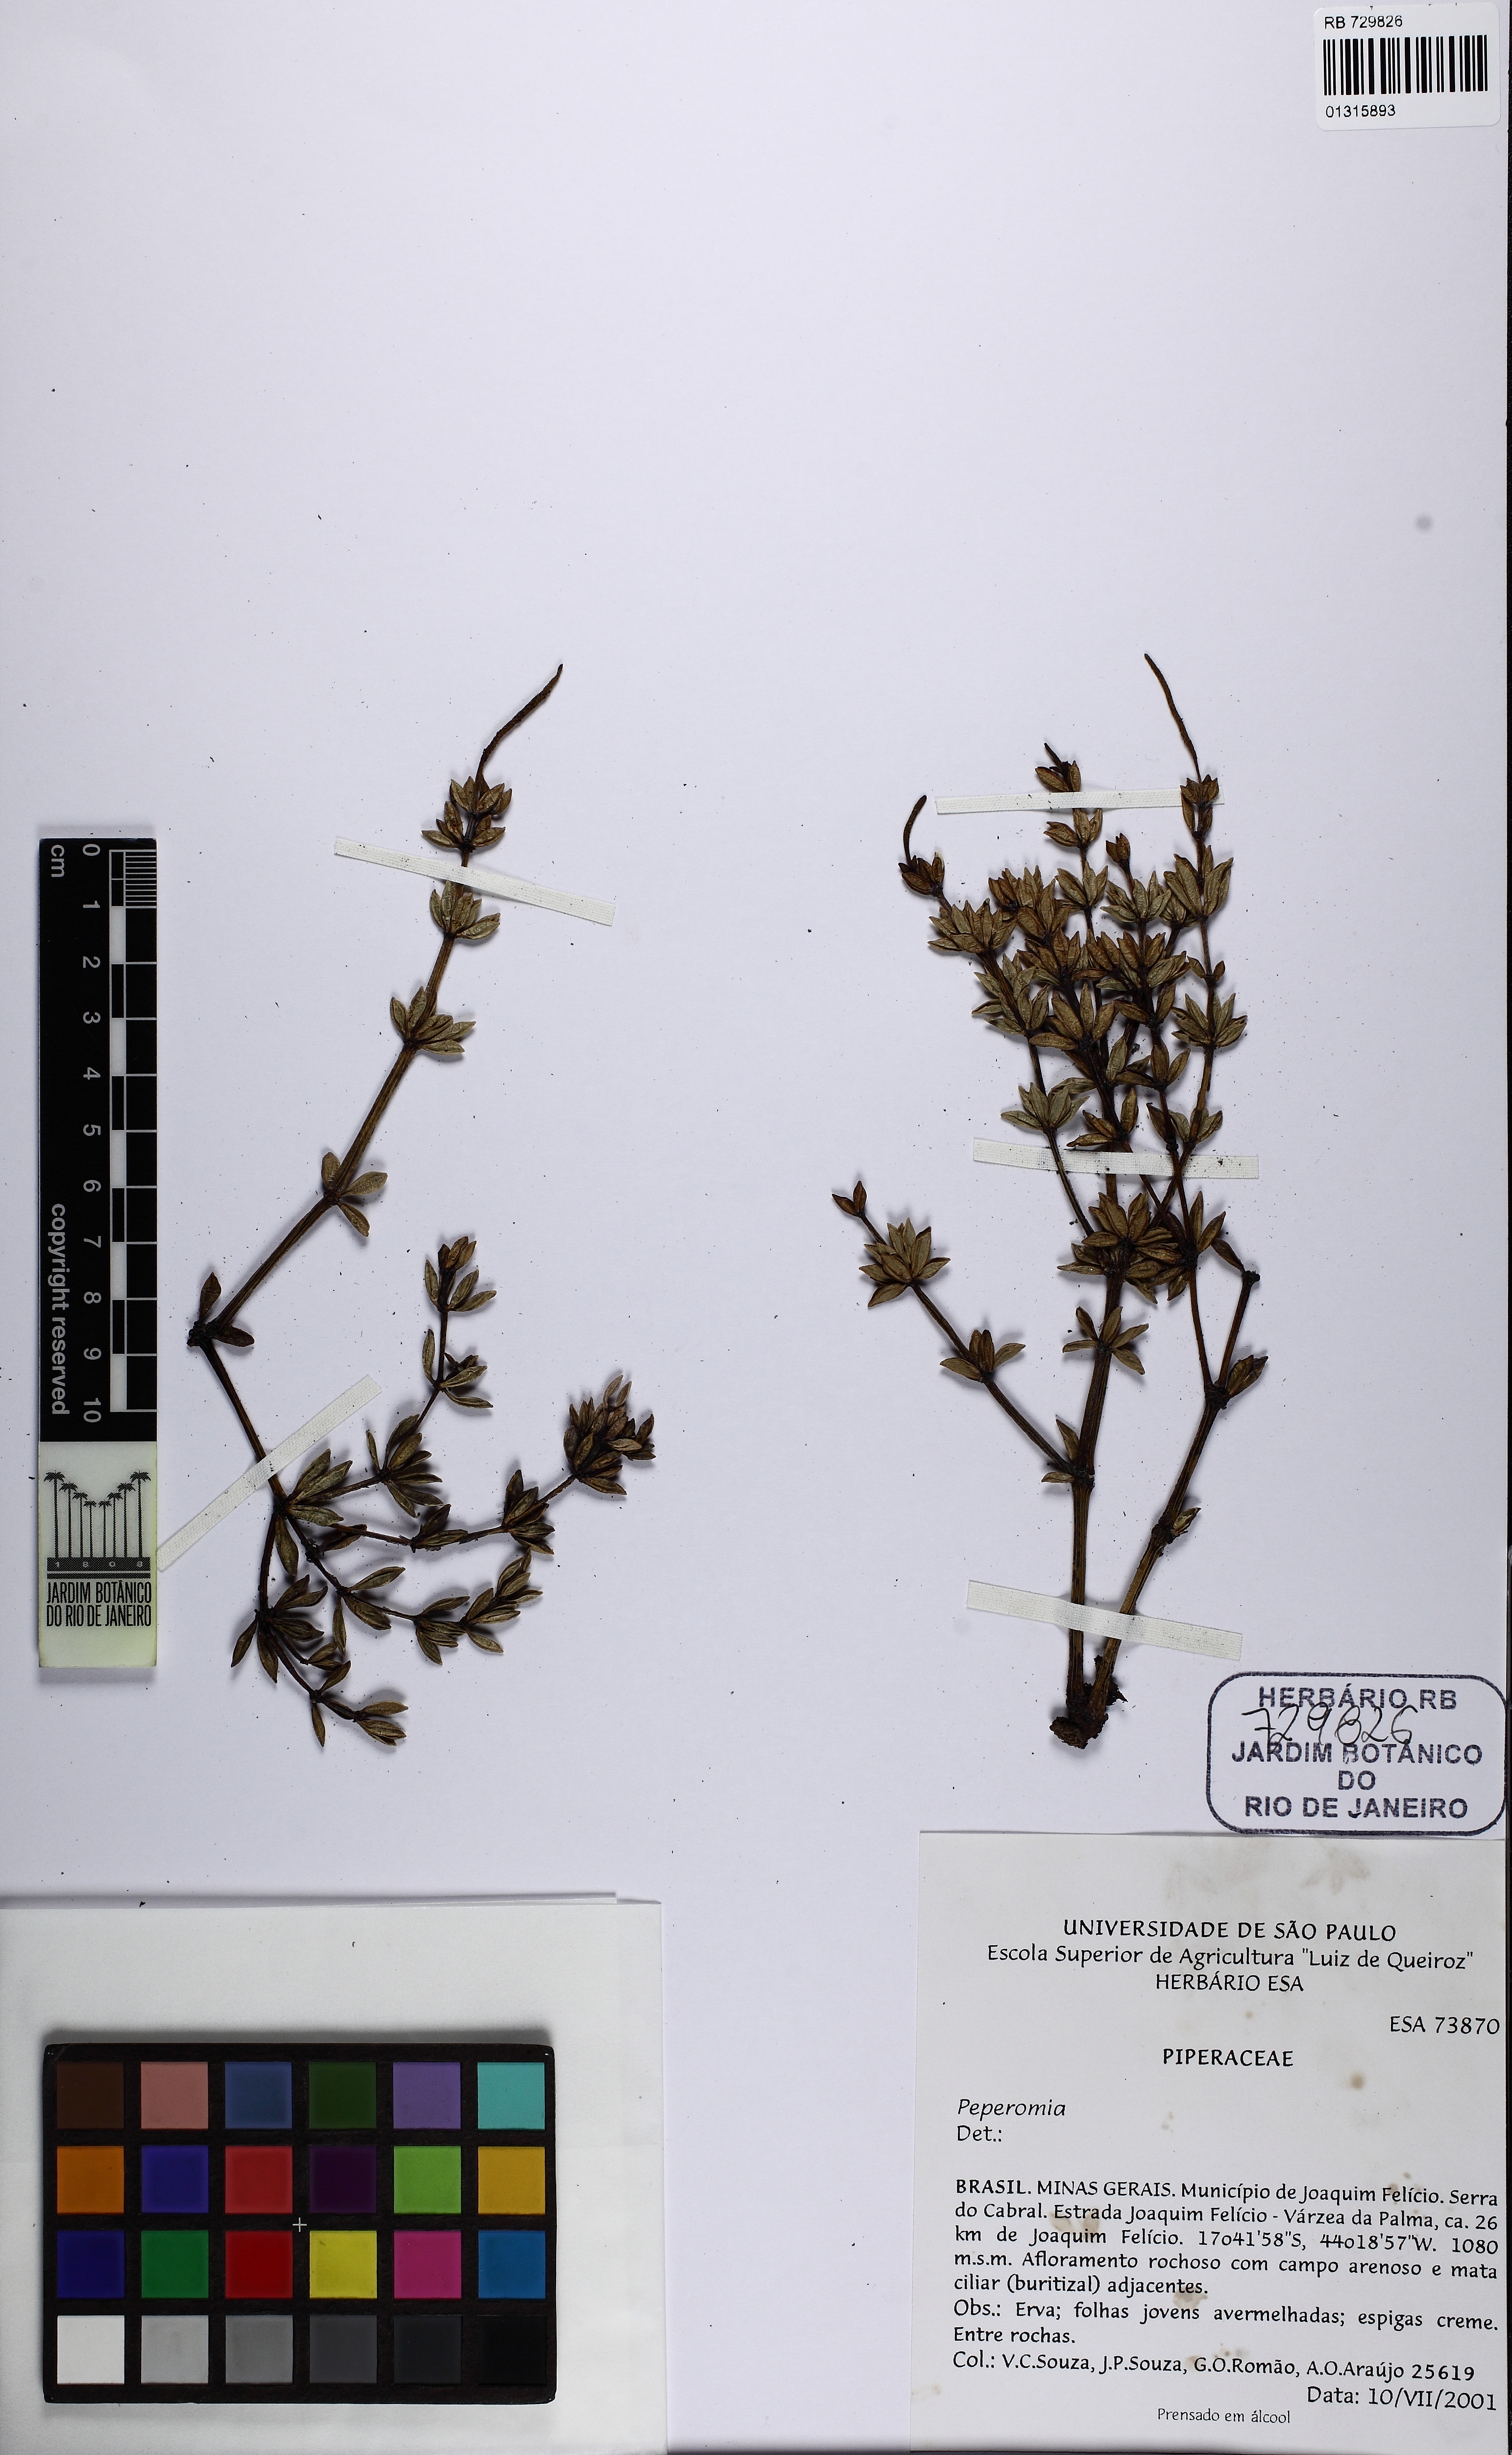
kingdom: Plantae
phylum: Tracheophyta
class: Magnoliopsida
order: Piperales
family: Piperaceae
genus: Peperomia
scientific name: Peperomia trineura
